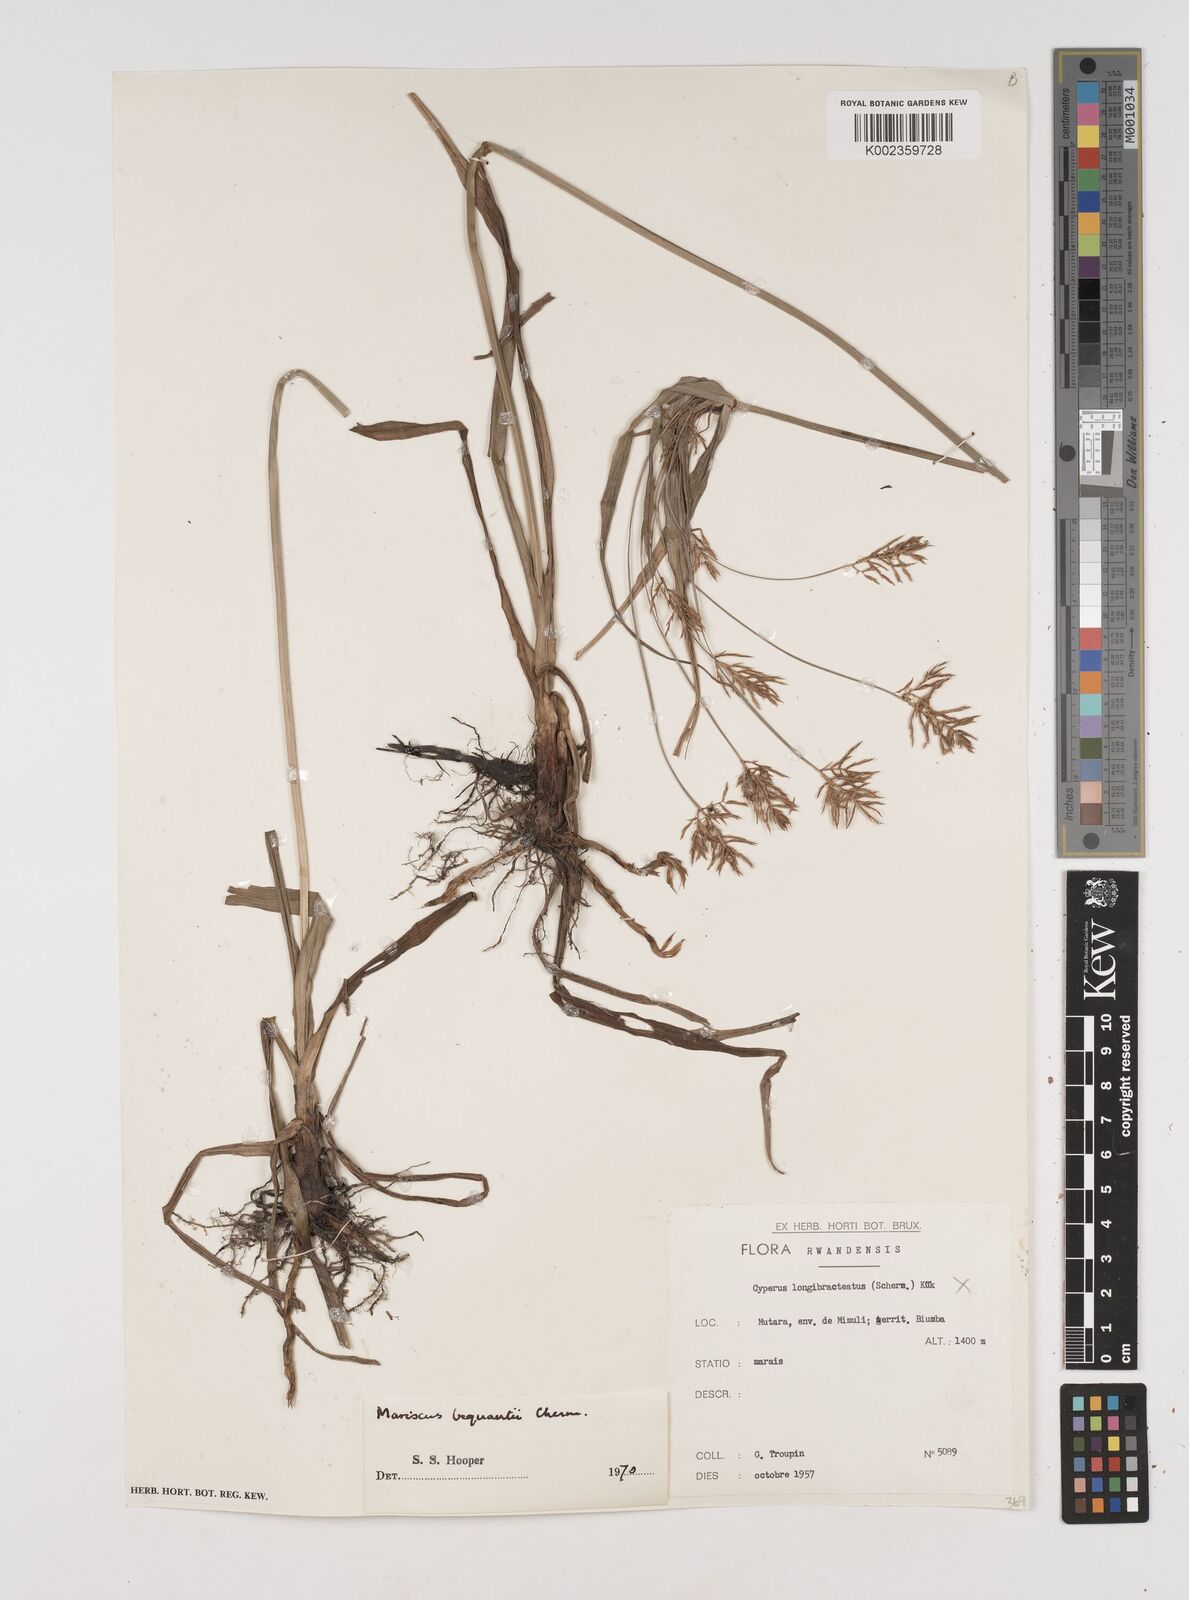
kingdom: Plantae
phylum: Tracheophyta
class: Liliopsida
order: Poales
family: Cyperaceae
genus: Cyperus
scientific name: Cyperus ferrugineoviridis
